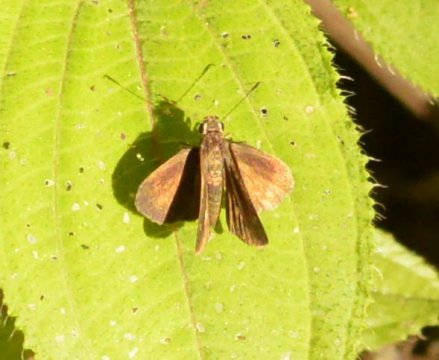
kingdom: Animalia
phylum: Arthropoda
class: Insecta
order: Lepidoptera
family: Hesperiidae
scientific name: Hesperiidae
